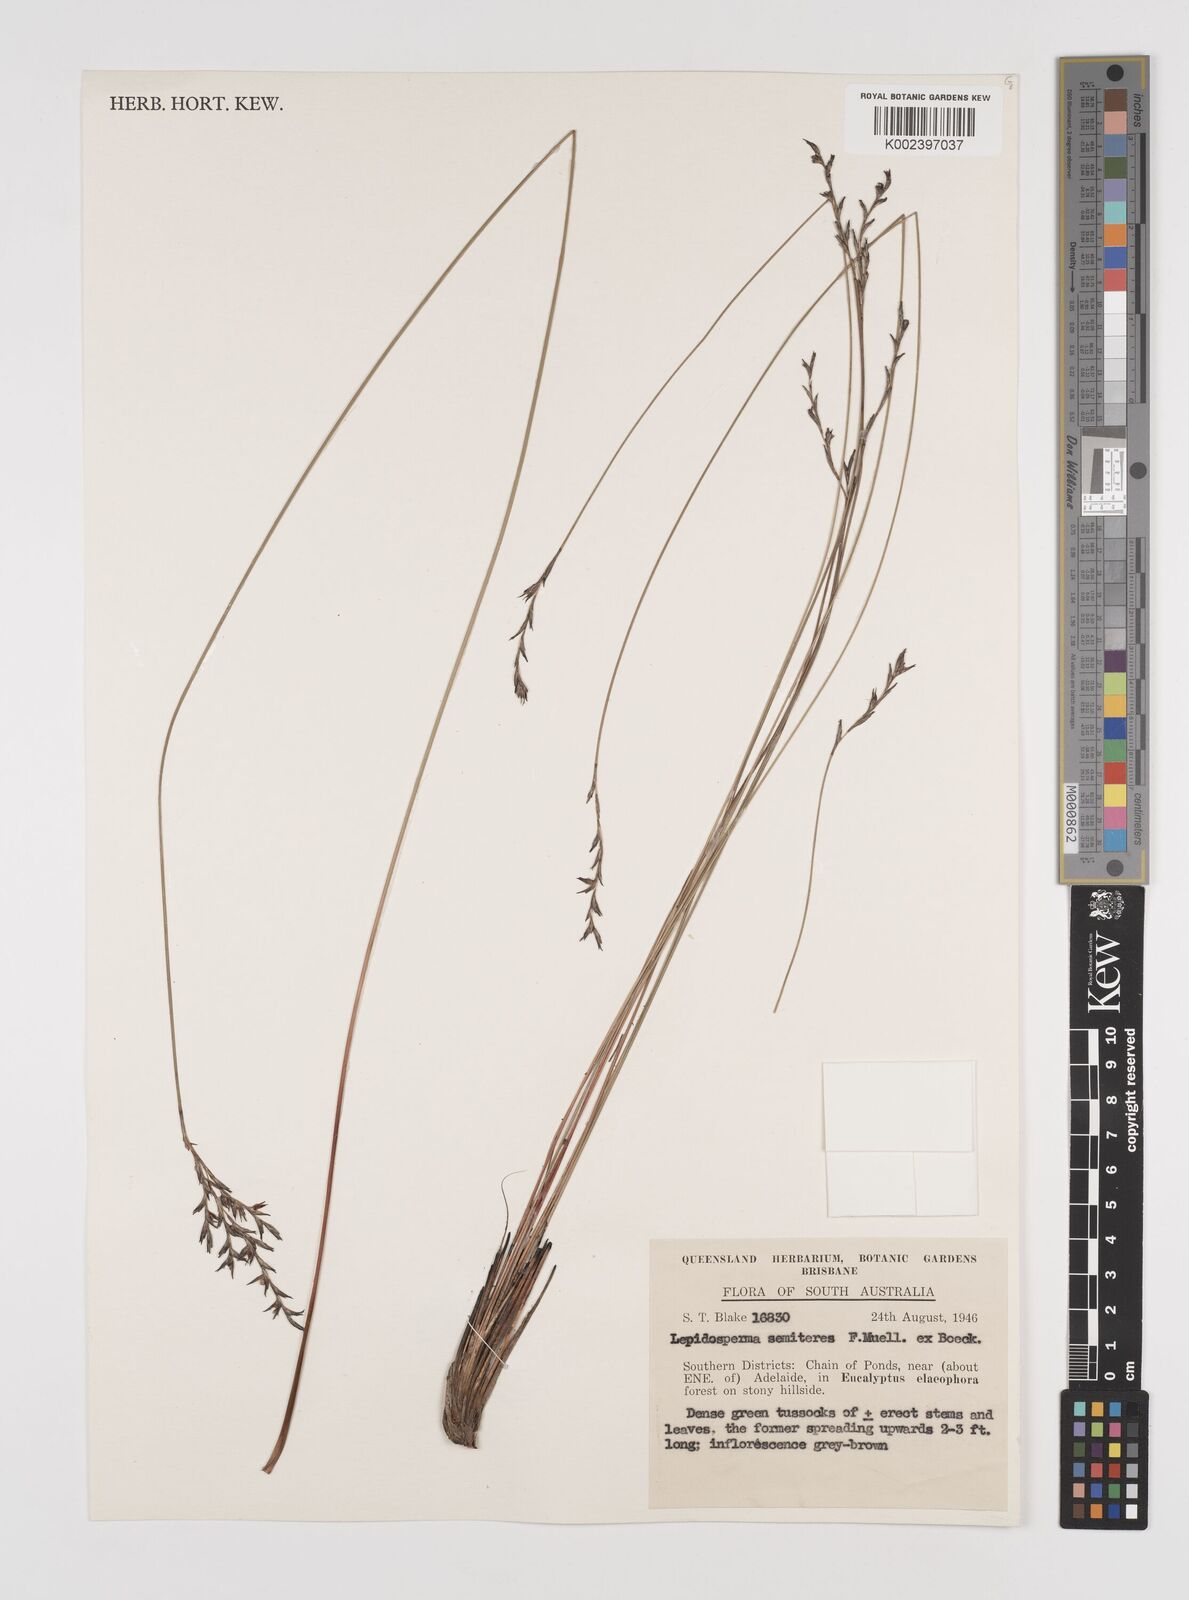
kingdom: Plantae
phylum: Tracheophyta
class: Liliopsida
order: Poales
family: Cyperaceae
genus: Lepidosperma
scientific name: Lepidosperma semiteres
